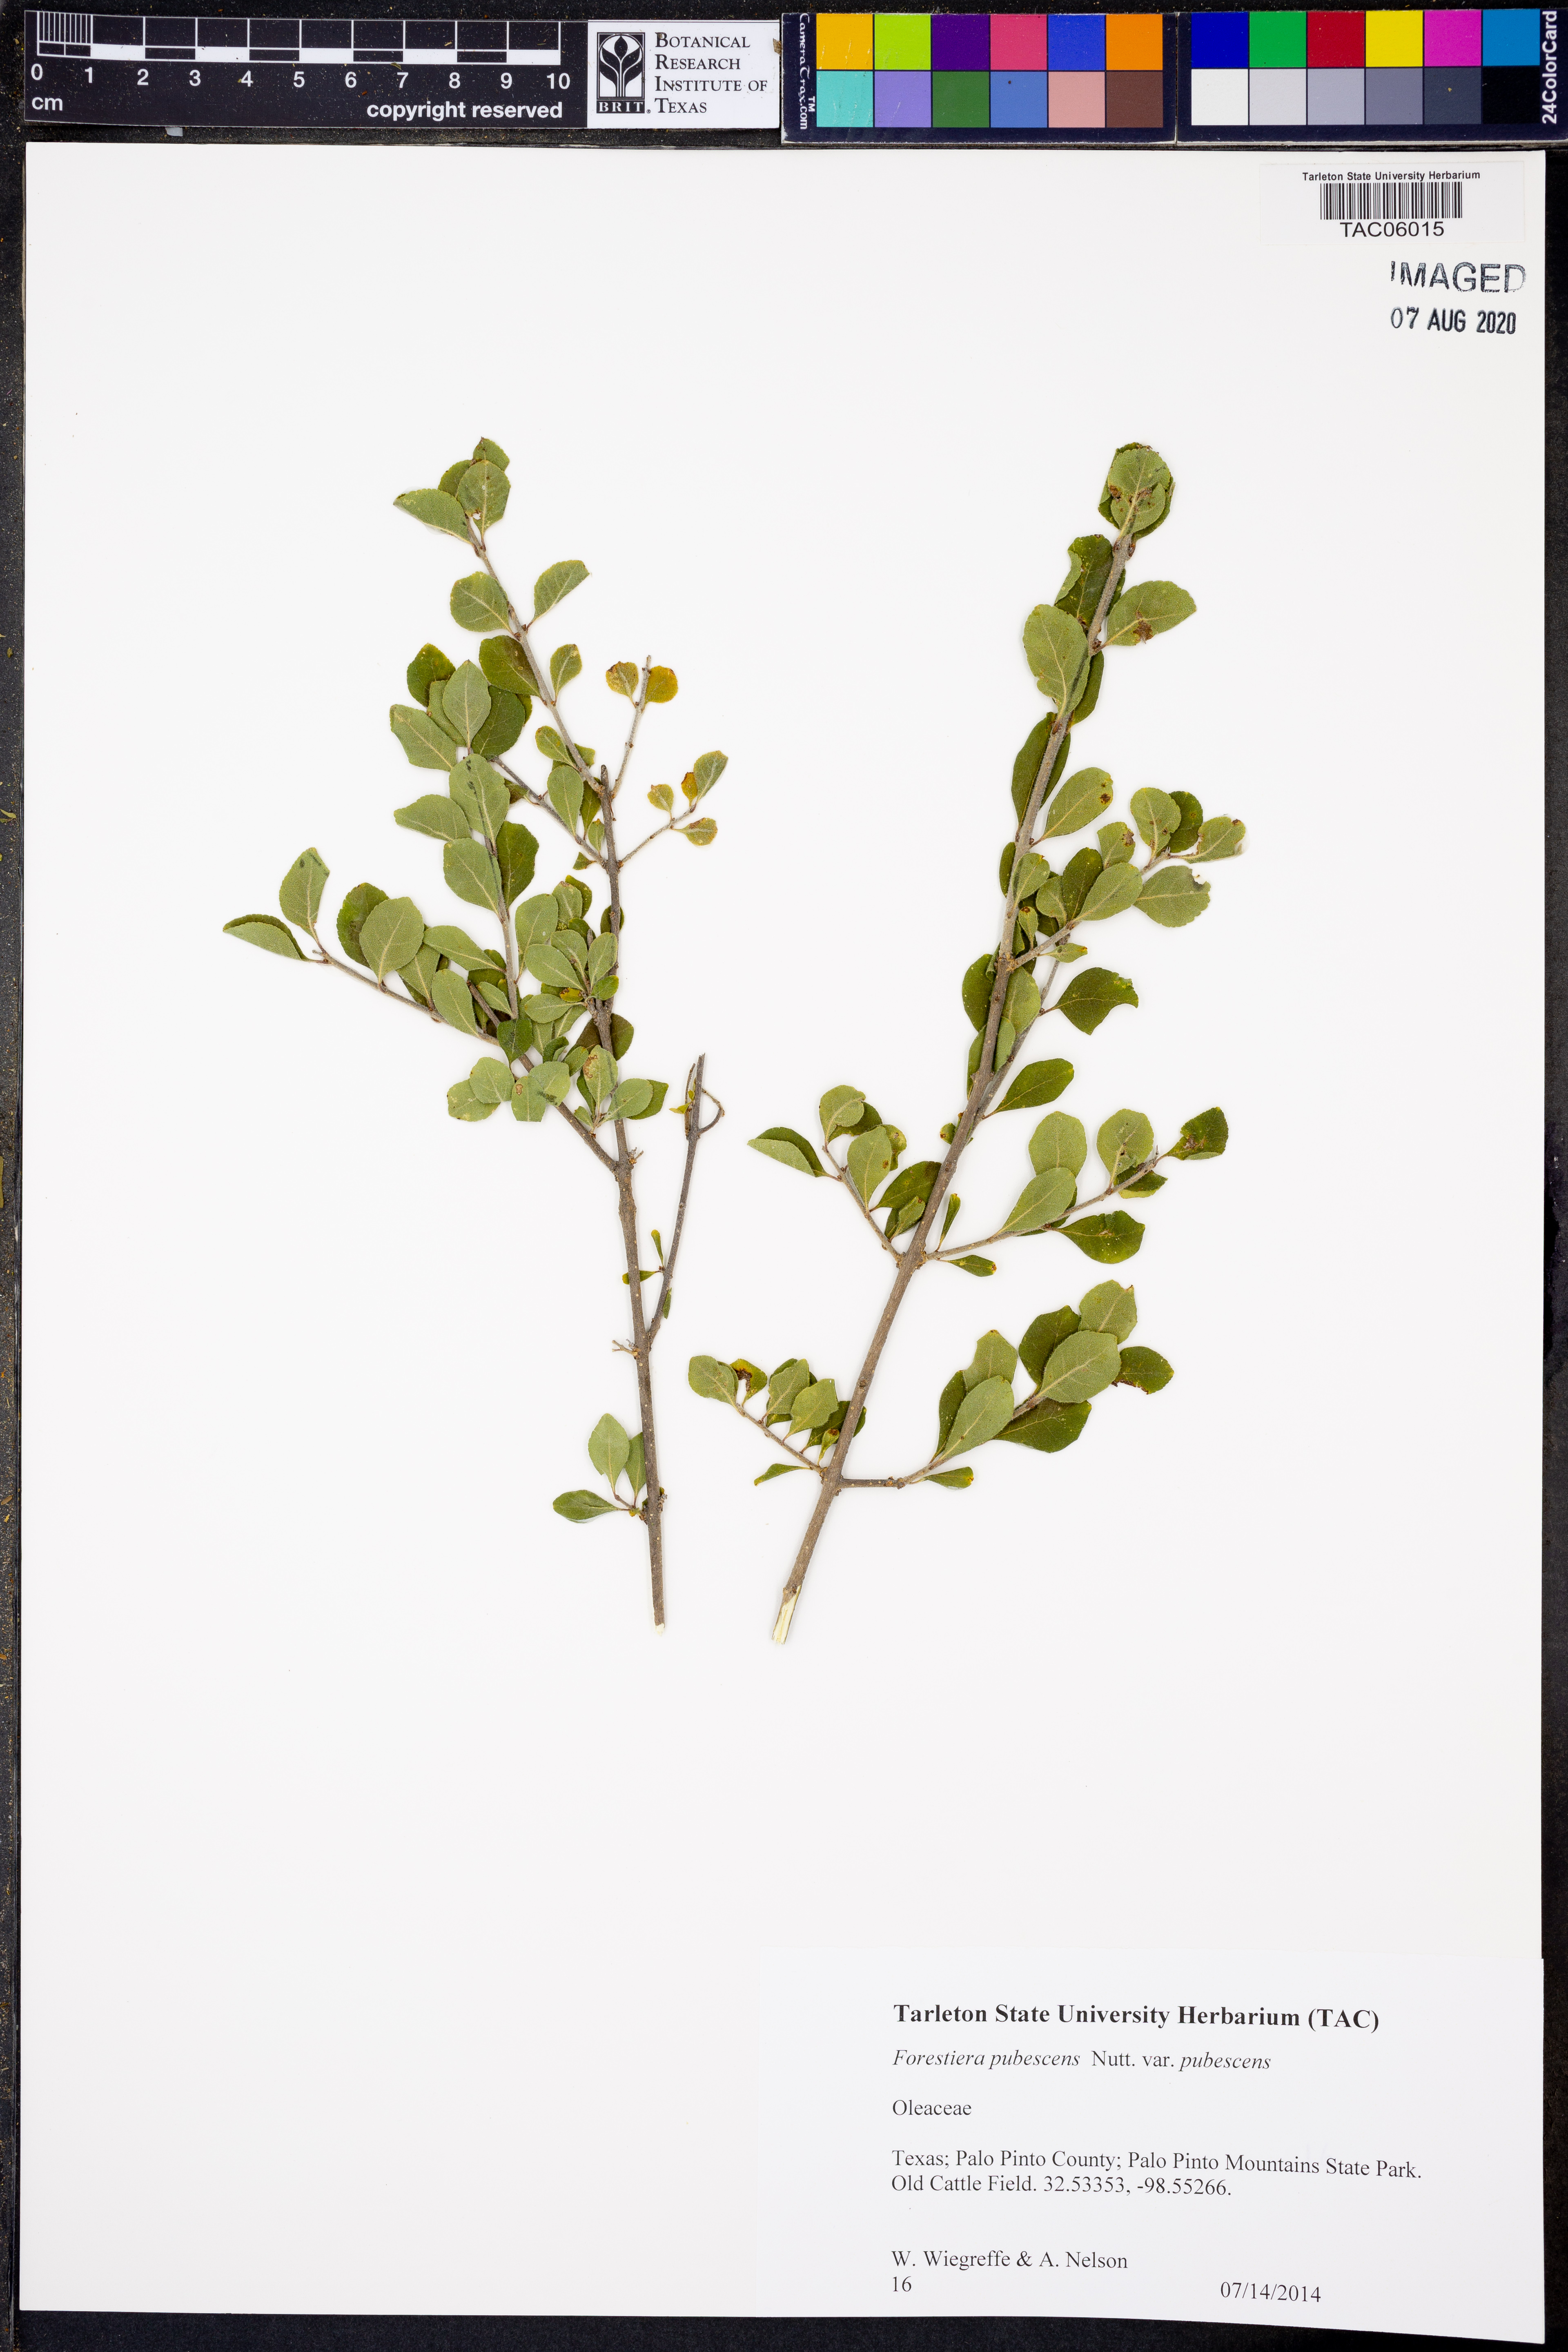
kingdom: Plantae
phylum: Tracheophyta
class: Magnoliopsida
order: Lamiales
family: Oleaceae
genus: Forestiera
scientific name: Forestiera pubescens
